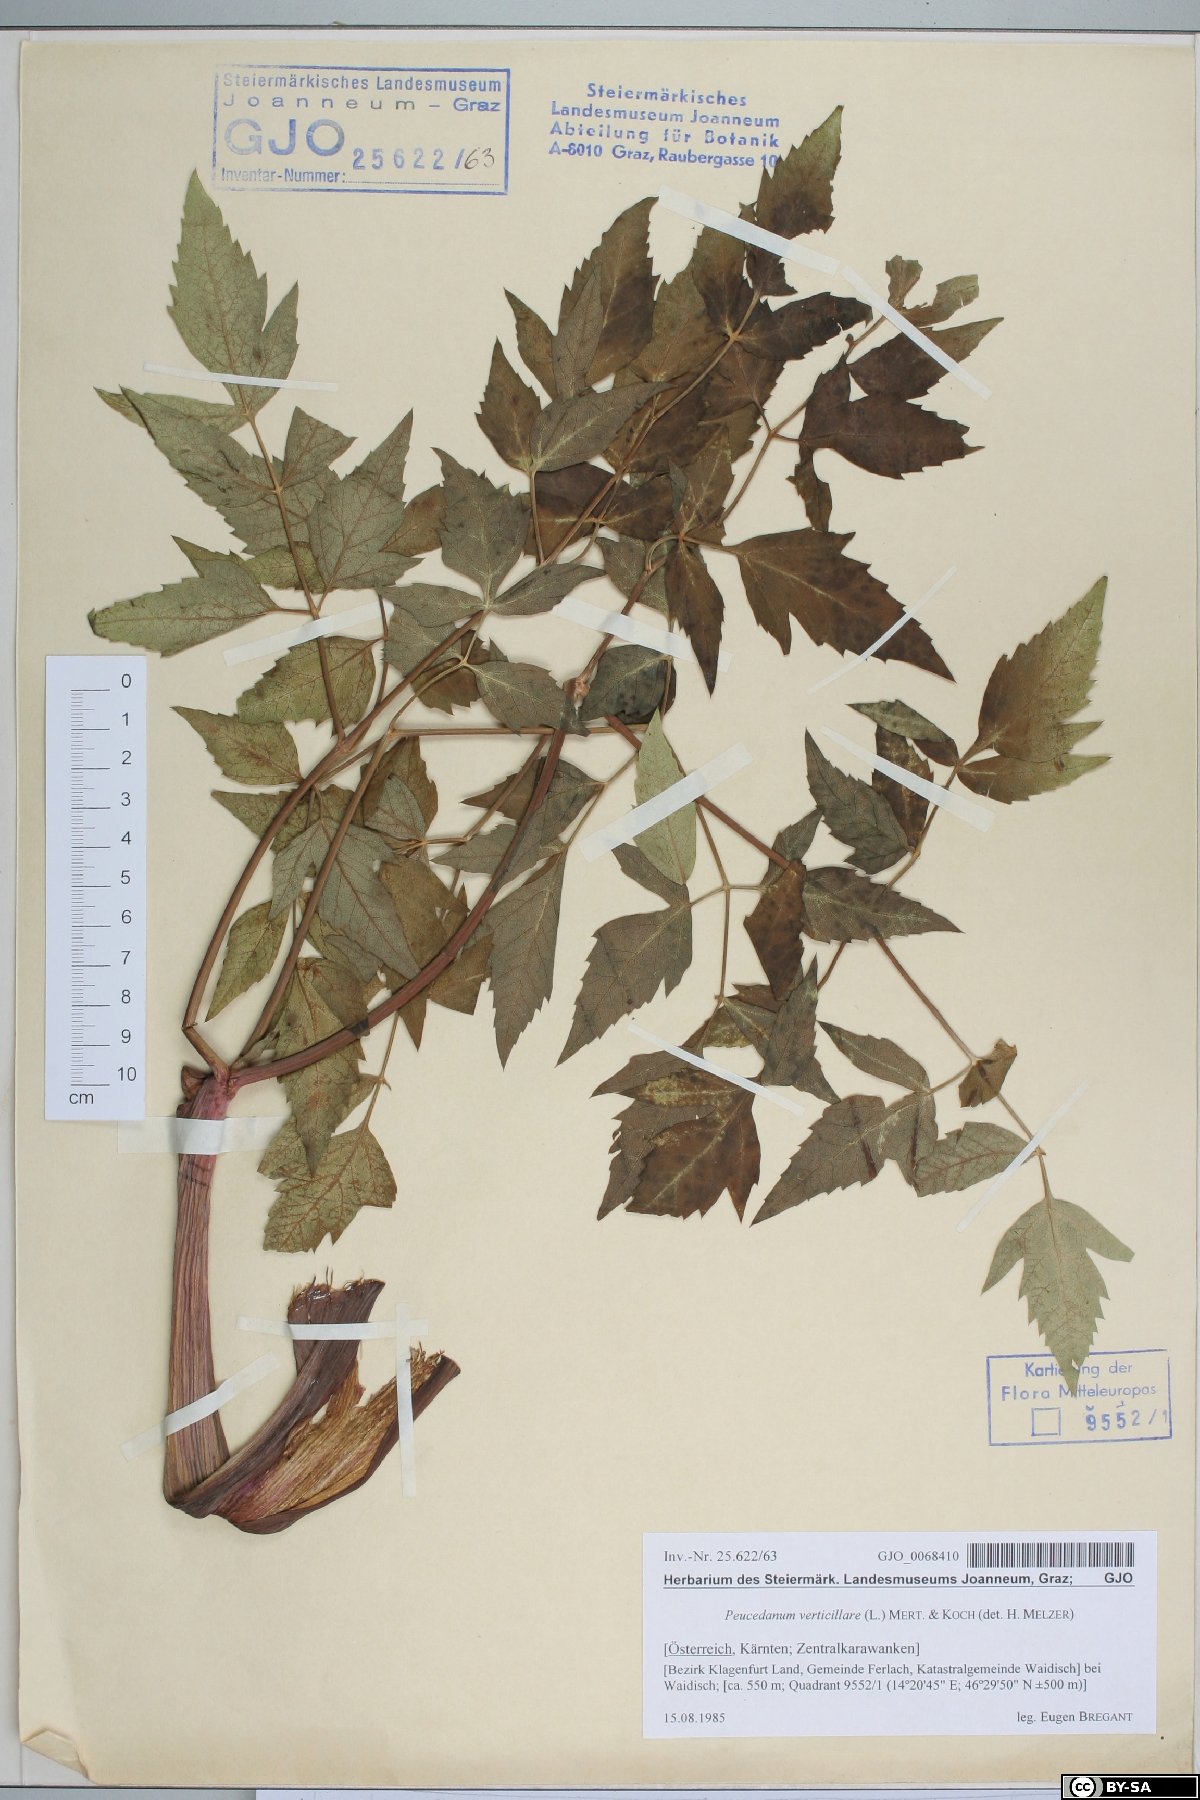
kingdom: Plantae
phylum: Tracheophyta
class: Magnoliopsida
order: Apiales
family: Apiaceae
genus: Tommasinia
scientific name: Tommasinia altissima
